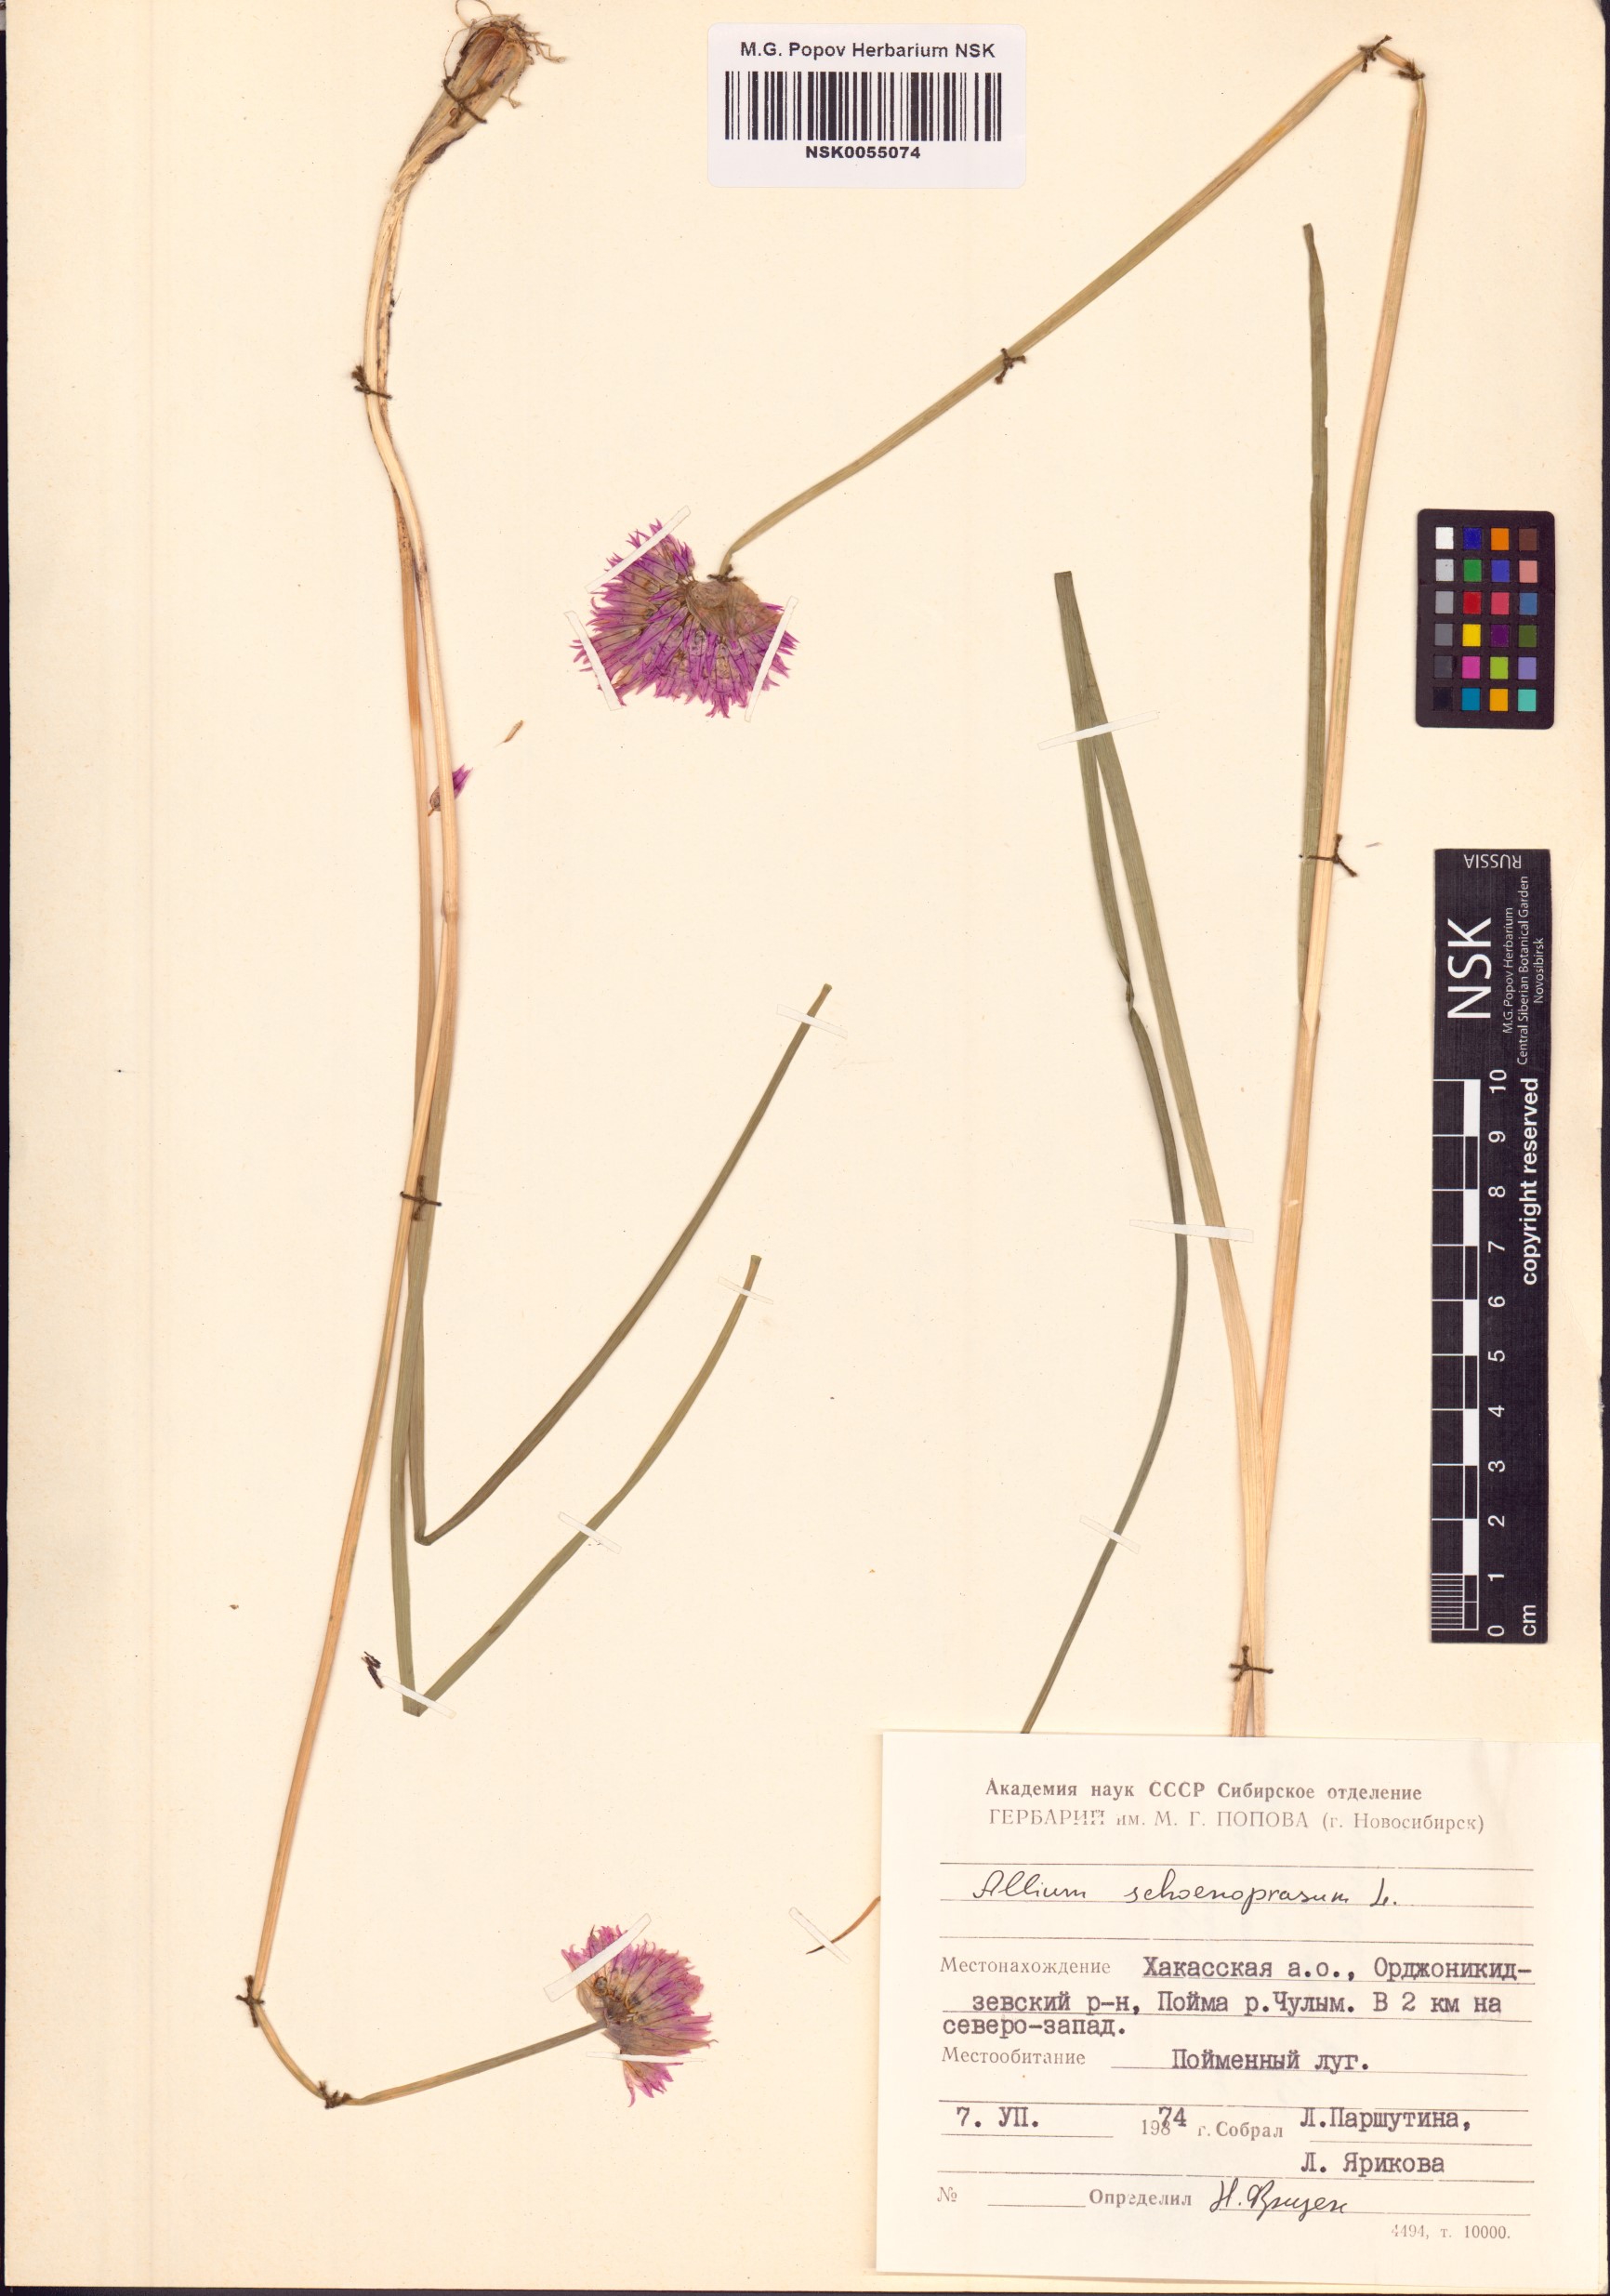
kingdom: Plantae
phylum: Tracheophyta
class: Liliopsida
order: Asparagales
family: Amaryllidaceae
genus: Allium
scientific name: Allium schoenoprasum
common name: Chives
